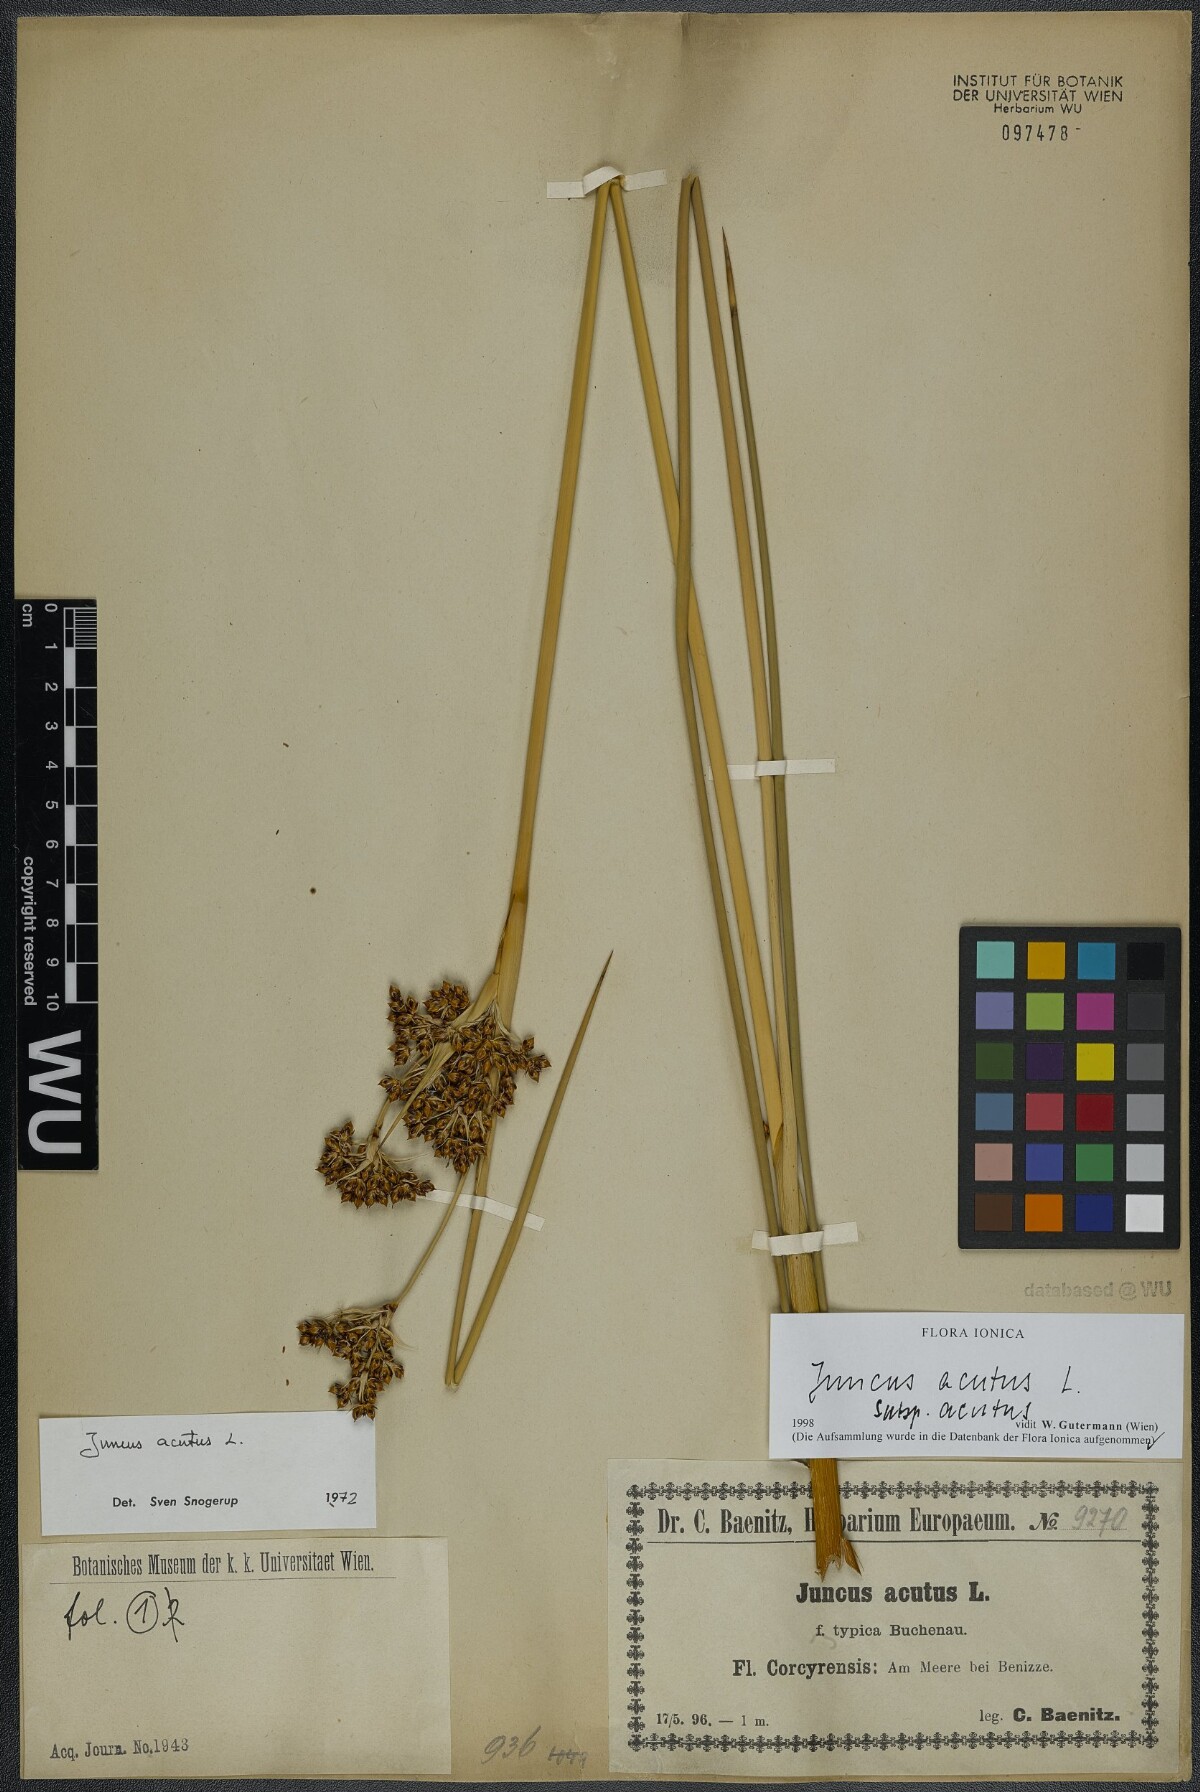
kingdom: Plantae
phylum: Tracheophyta
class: Liliopsida
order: Poales
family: Juncaceae
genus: Juncus
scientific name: Juncus acutus
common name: Sharp rush
